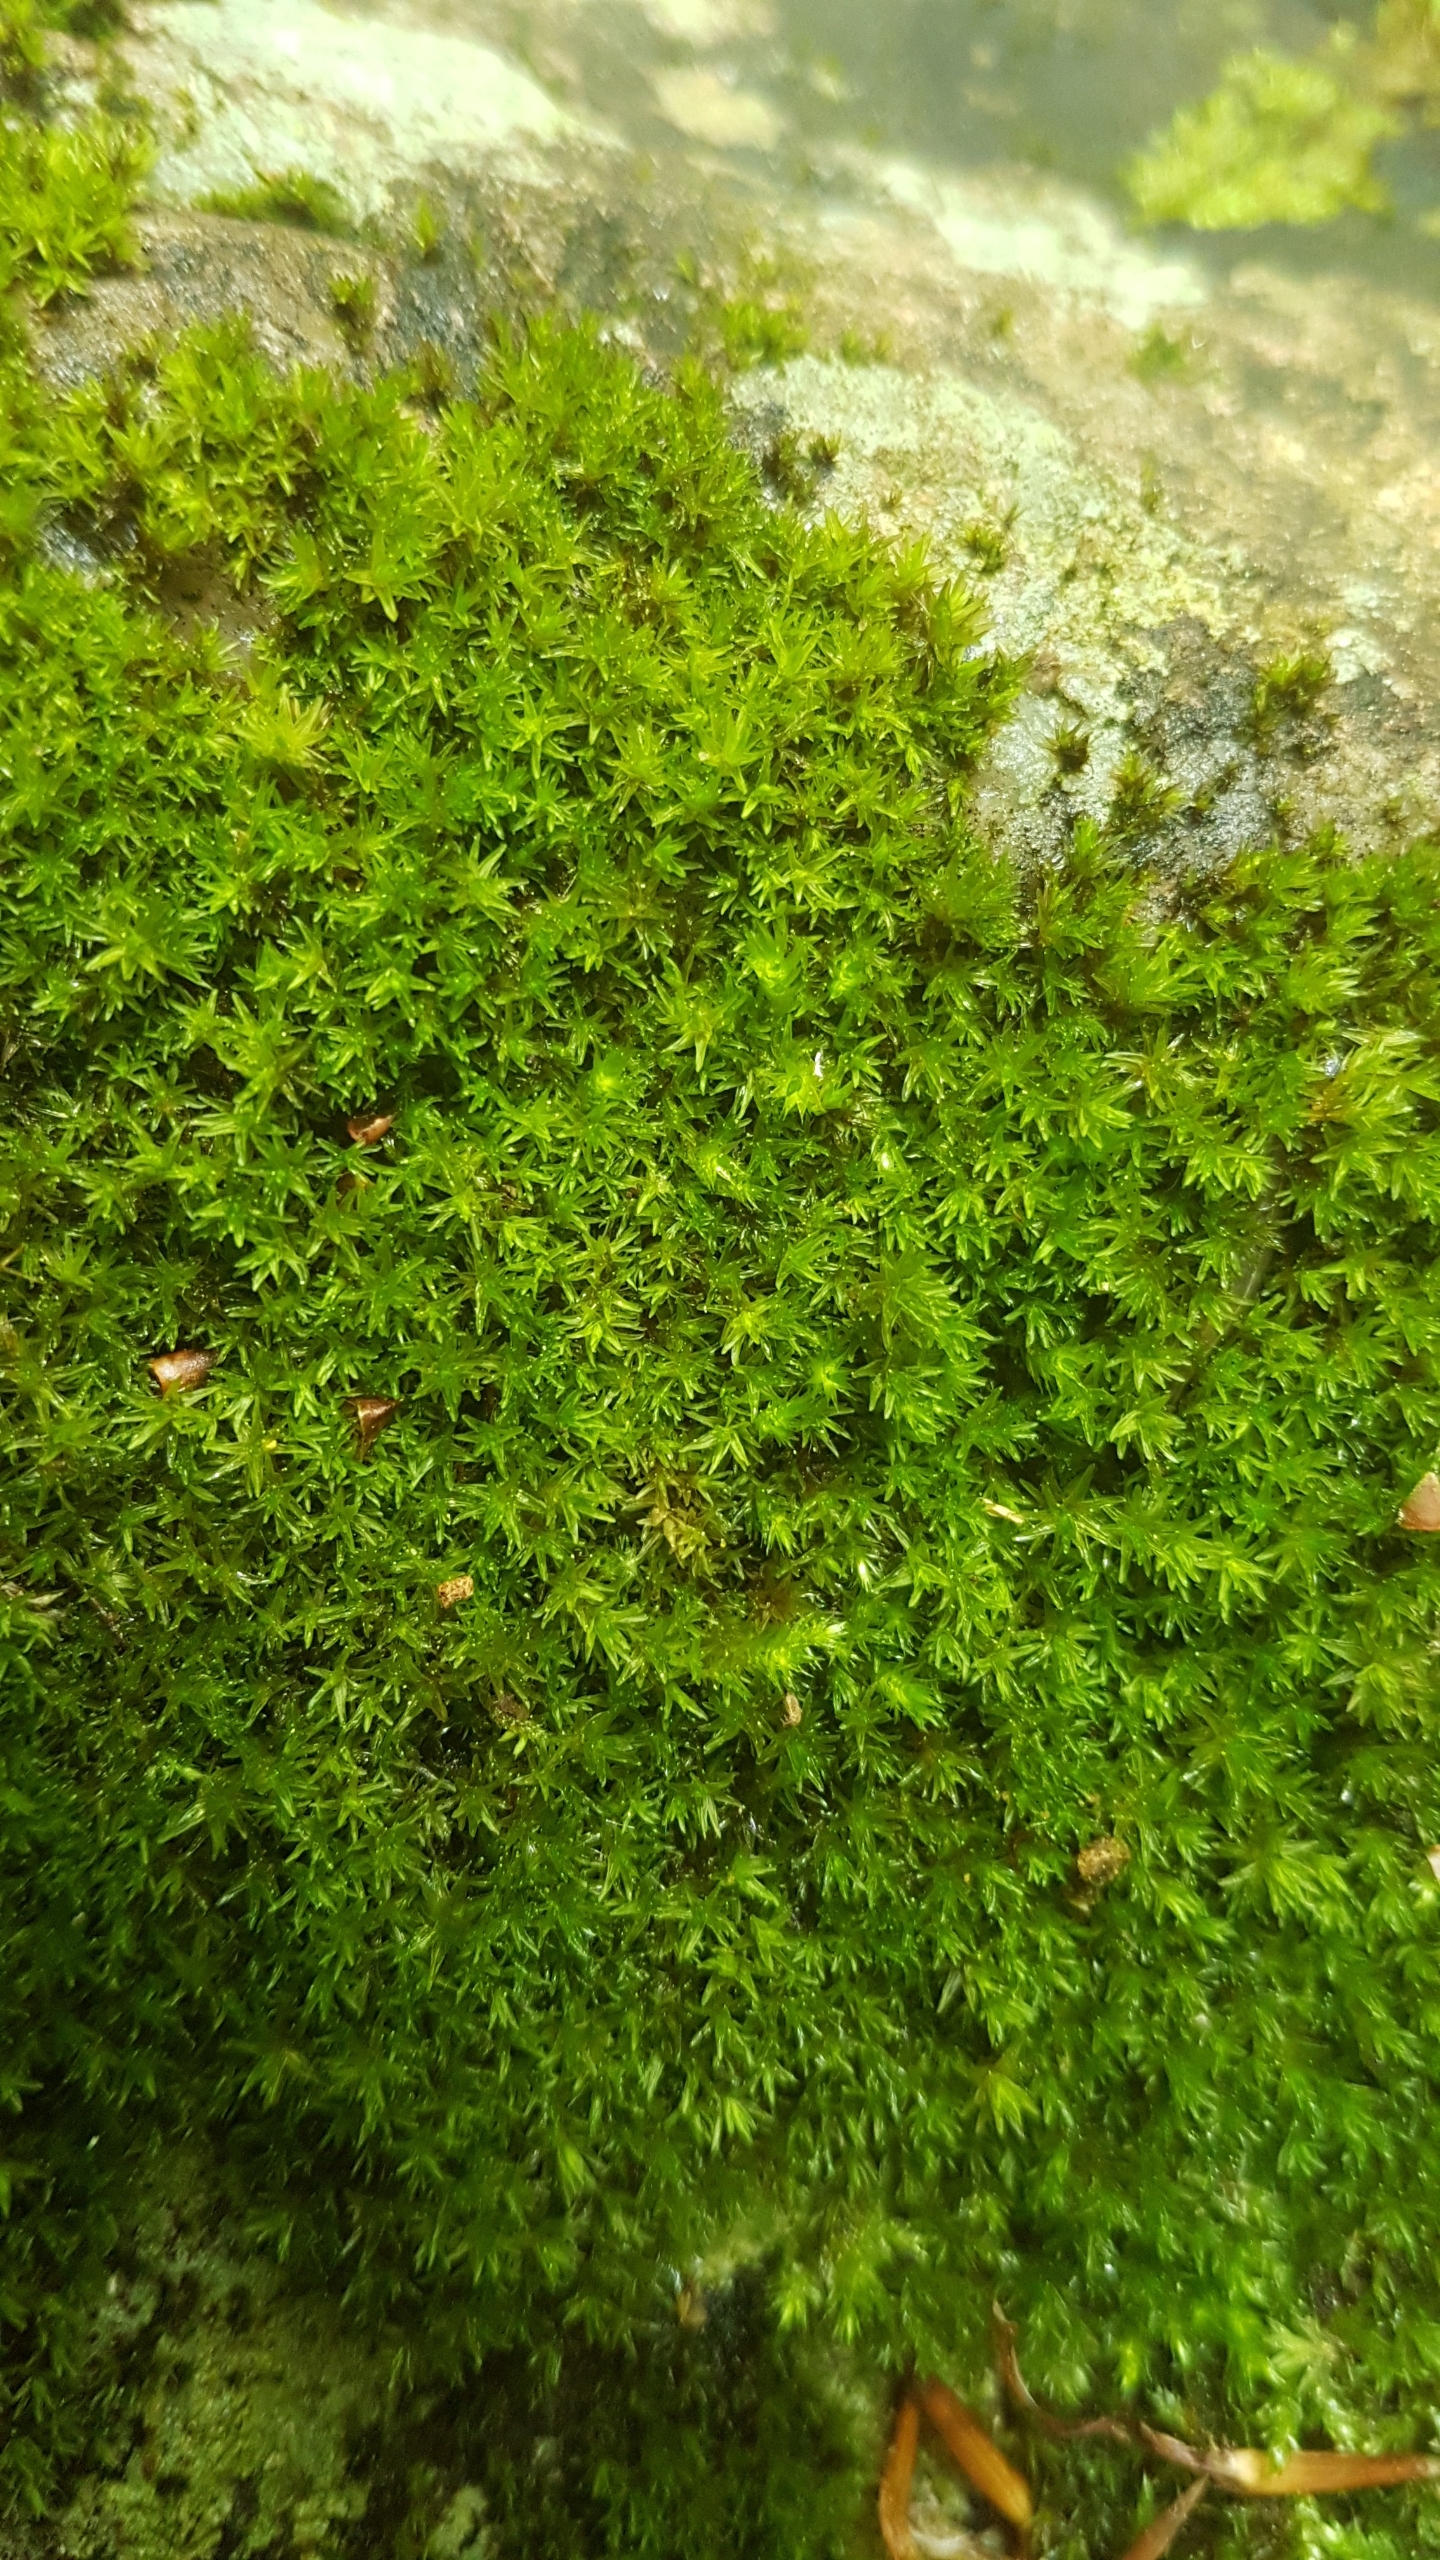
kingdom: Plantae
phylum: Bryophyta
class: Bryopsida
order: Grimmiales
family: Grimmiaceae
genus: Codriophorus
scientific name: Codriophorus acicularis
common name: Butbladet børstemos
